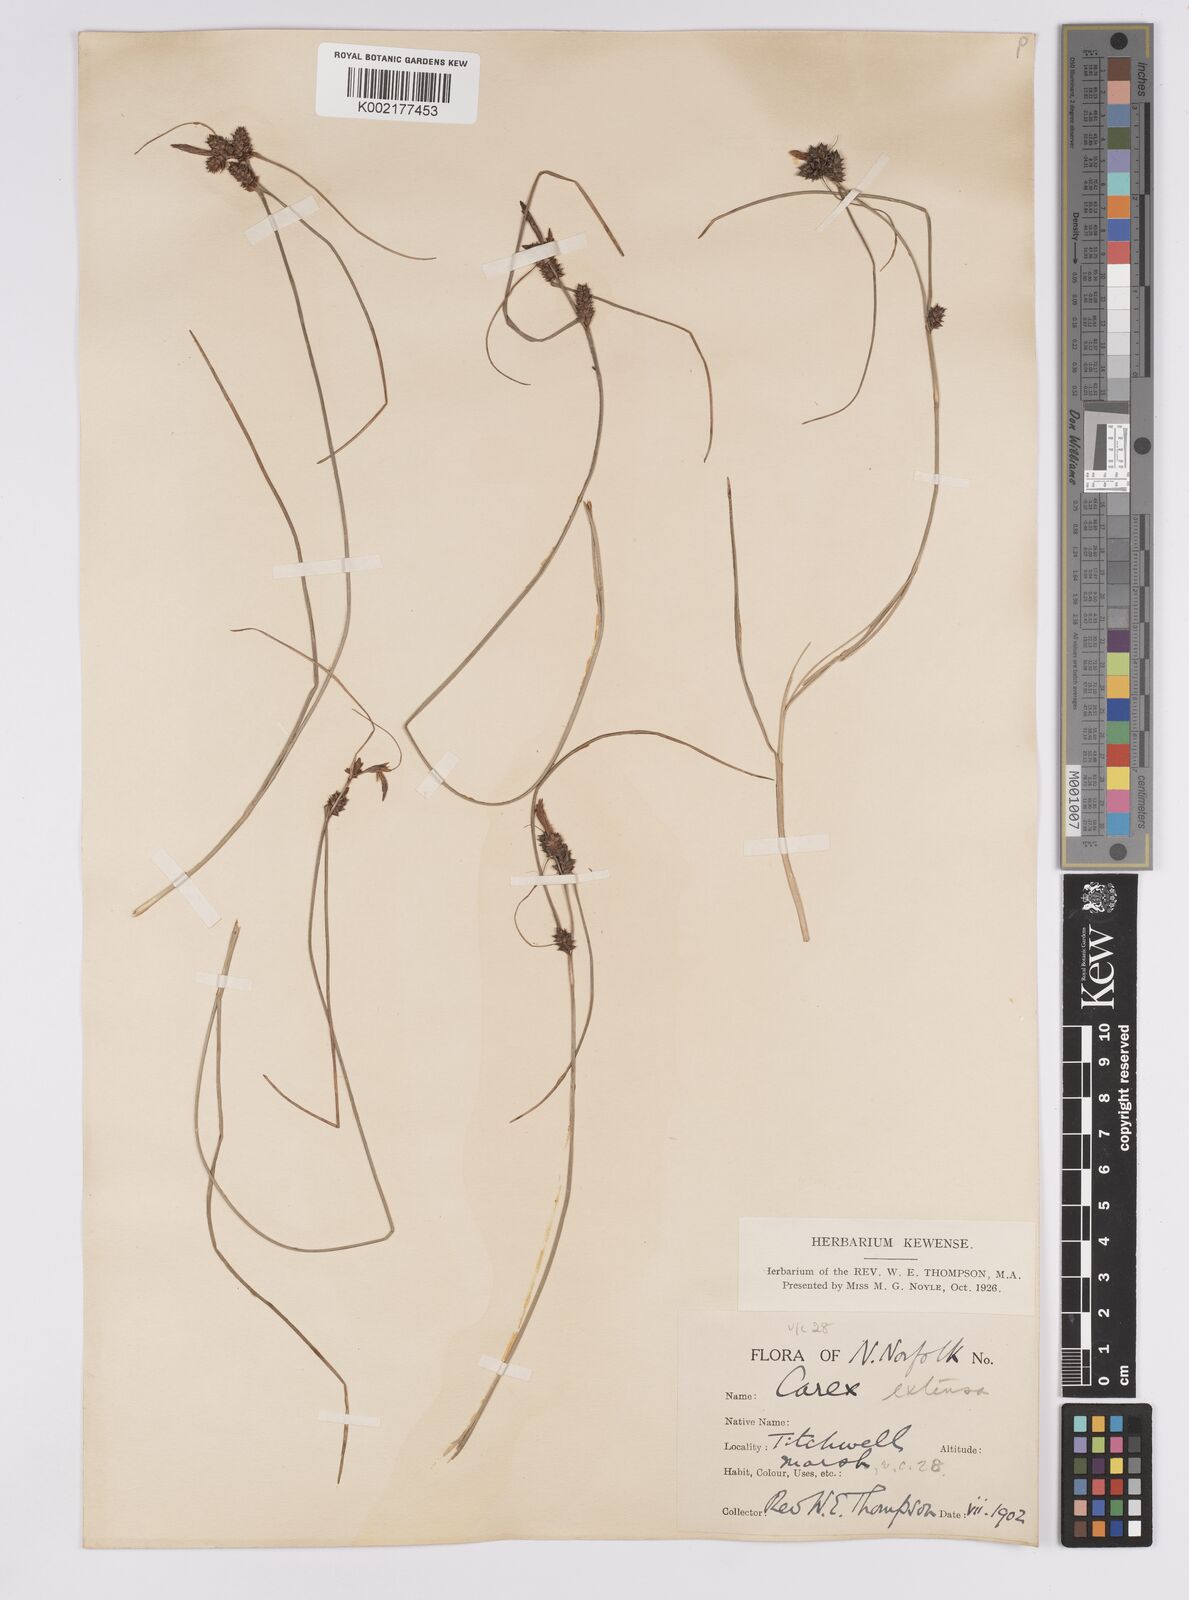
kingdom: Plantae
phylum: Tracheophyta
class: Liliopsida
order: Poales
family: Cyperaceae
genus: Carex
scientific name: Carex extensa
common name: Long-bracted sedge
